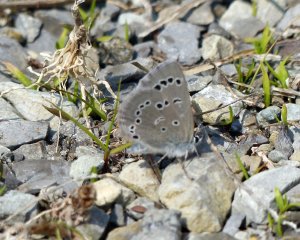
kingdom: Animalia
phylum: Arthropoda
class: Insecta
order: Lepidoptera
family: Lycaenidae
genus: Glaucopsyche
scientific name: Glaucopsyche lygdamus
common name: Silvery Blue
